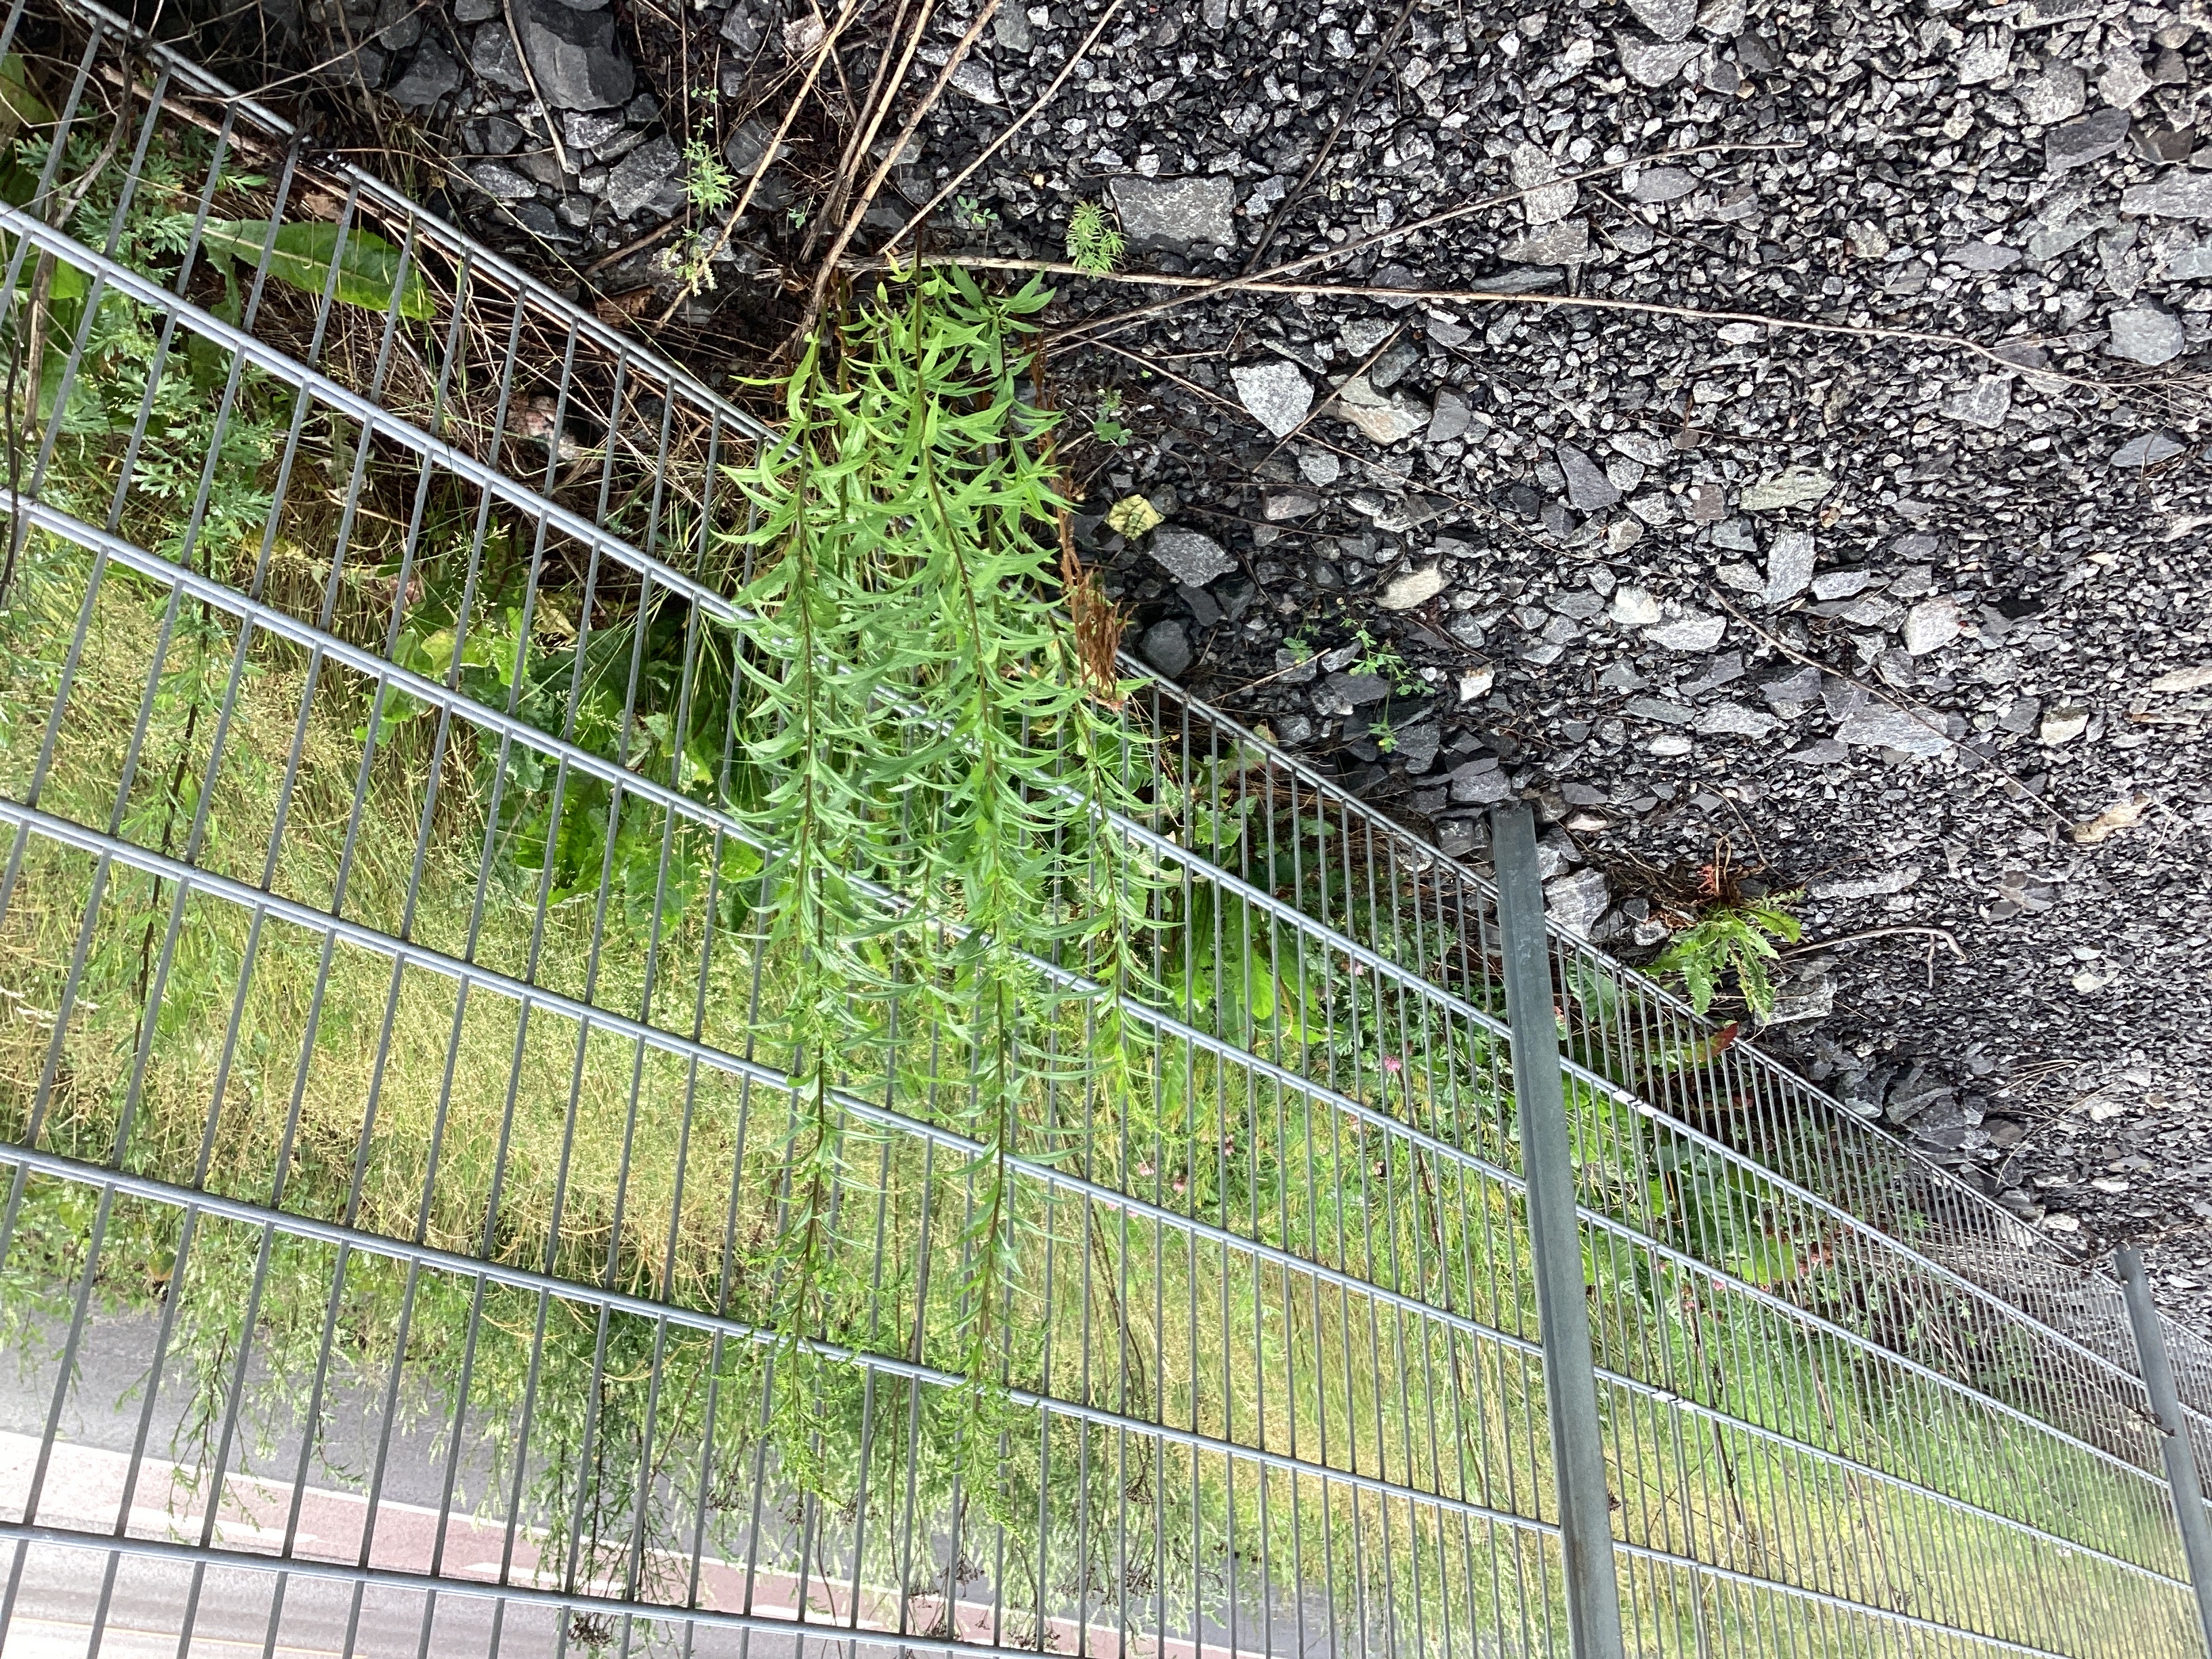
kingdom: Plantae
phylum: Tracheophyta
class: Magnoliopsida
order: Asterales
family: Asteraceae
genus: Solidago
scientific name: Solidago canadensis
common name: kanadagullris
